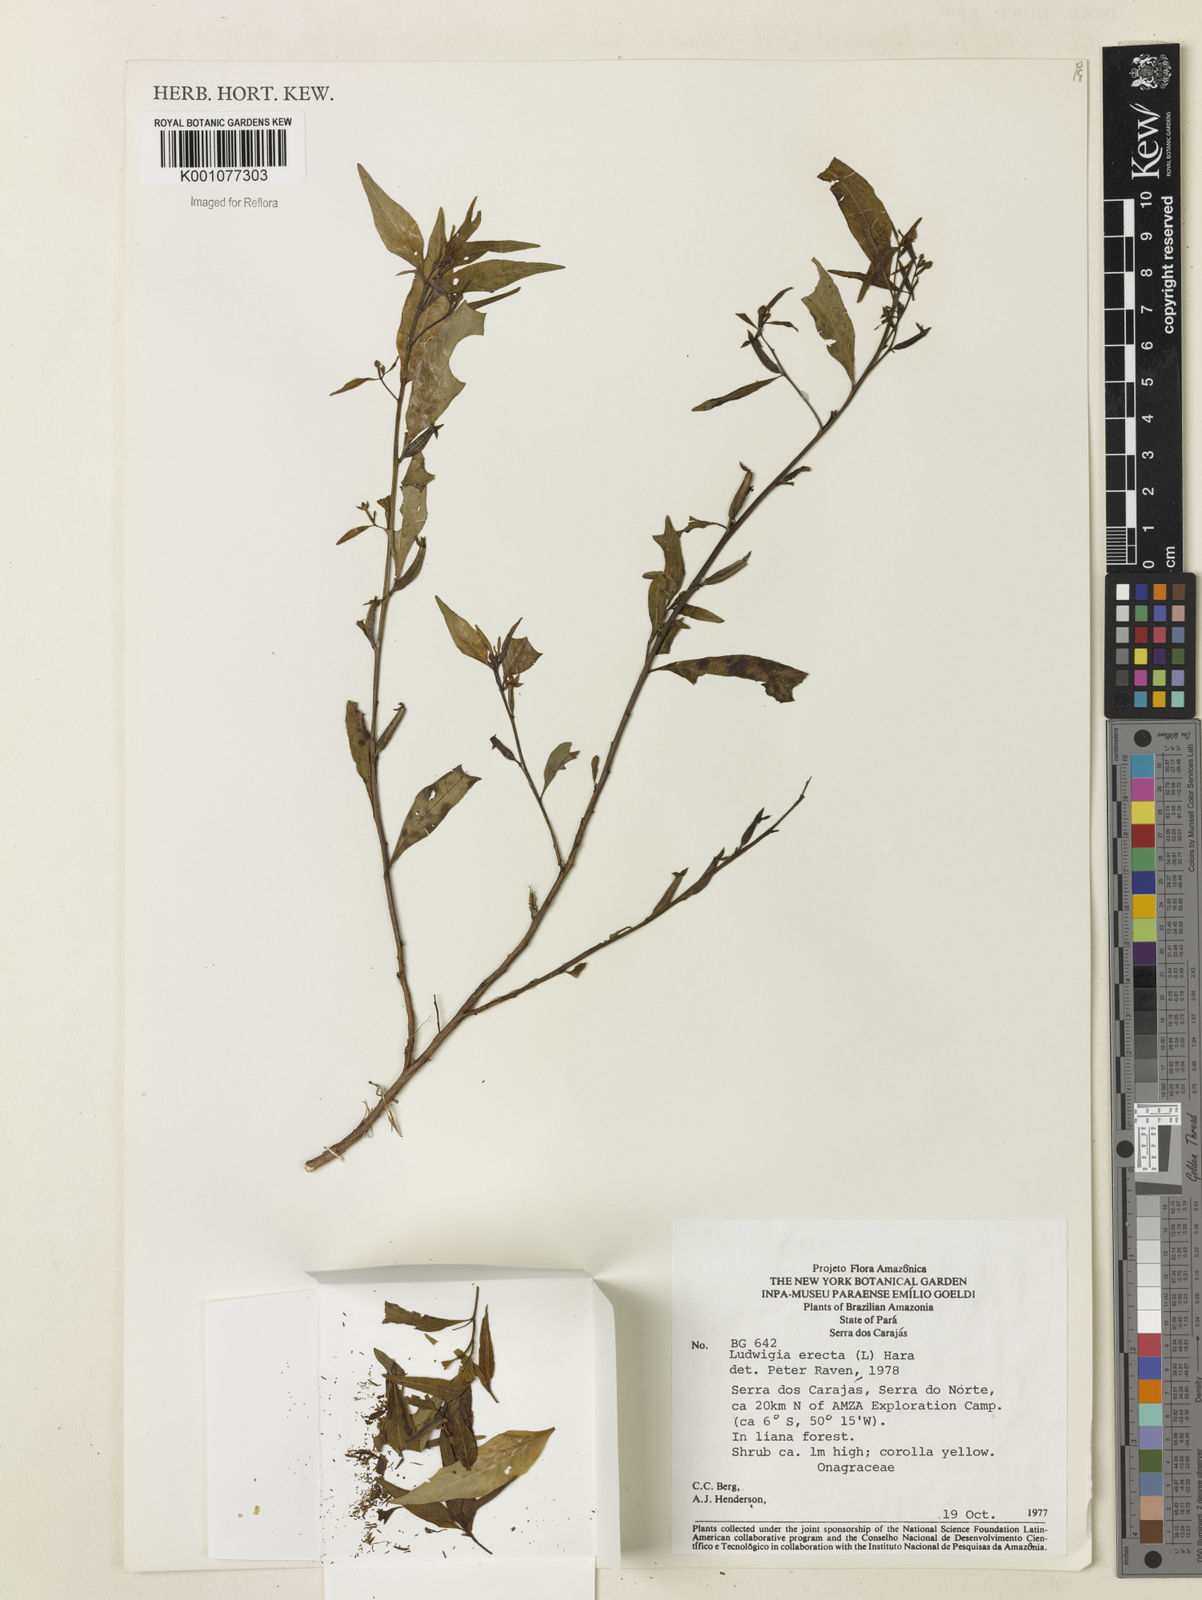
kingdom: Plantae
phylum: Tracheophyta
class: Magnoliopsida
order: Myrtales
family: Onagraceae
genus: Ludwigia
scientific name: Ludwigia erecta
